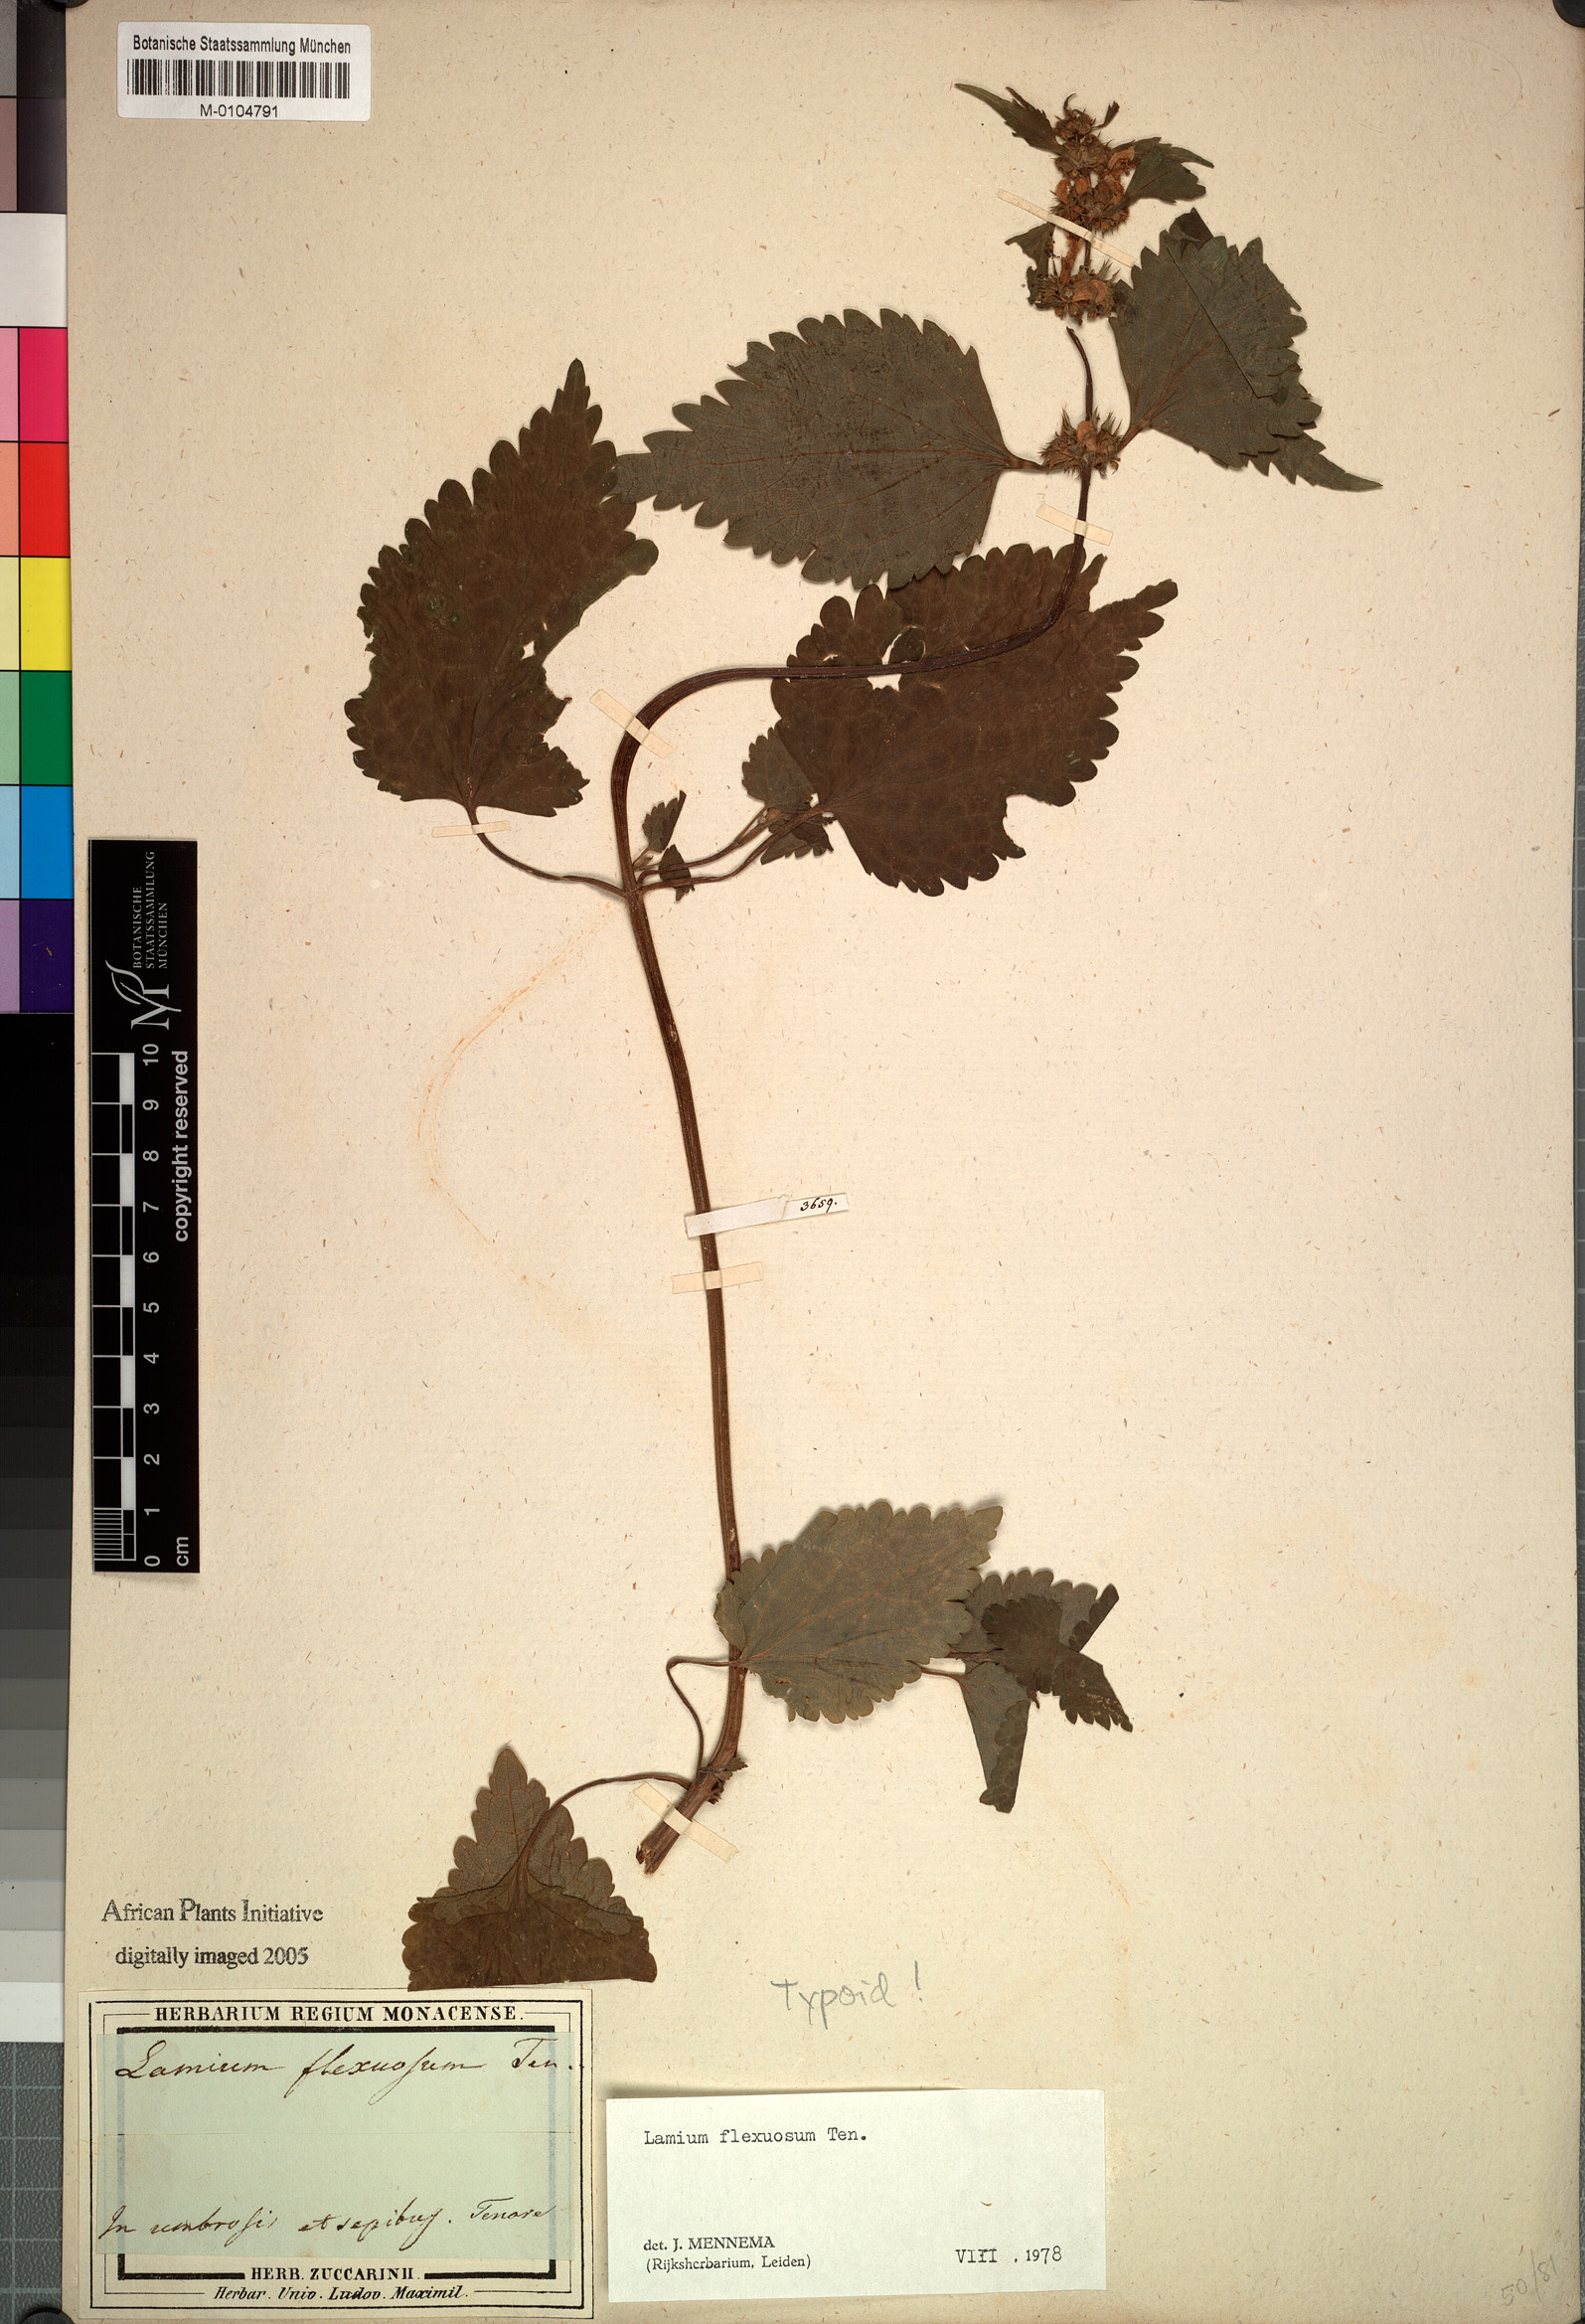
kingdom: Plantae
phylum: Tracheophyta
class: Magnoliopsida
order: Lamiales
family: Lamiaceae
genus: Lamium
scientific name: Lamium flexuosum
